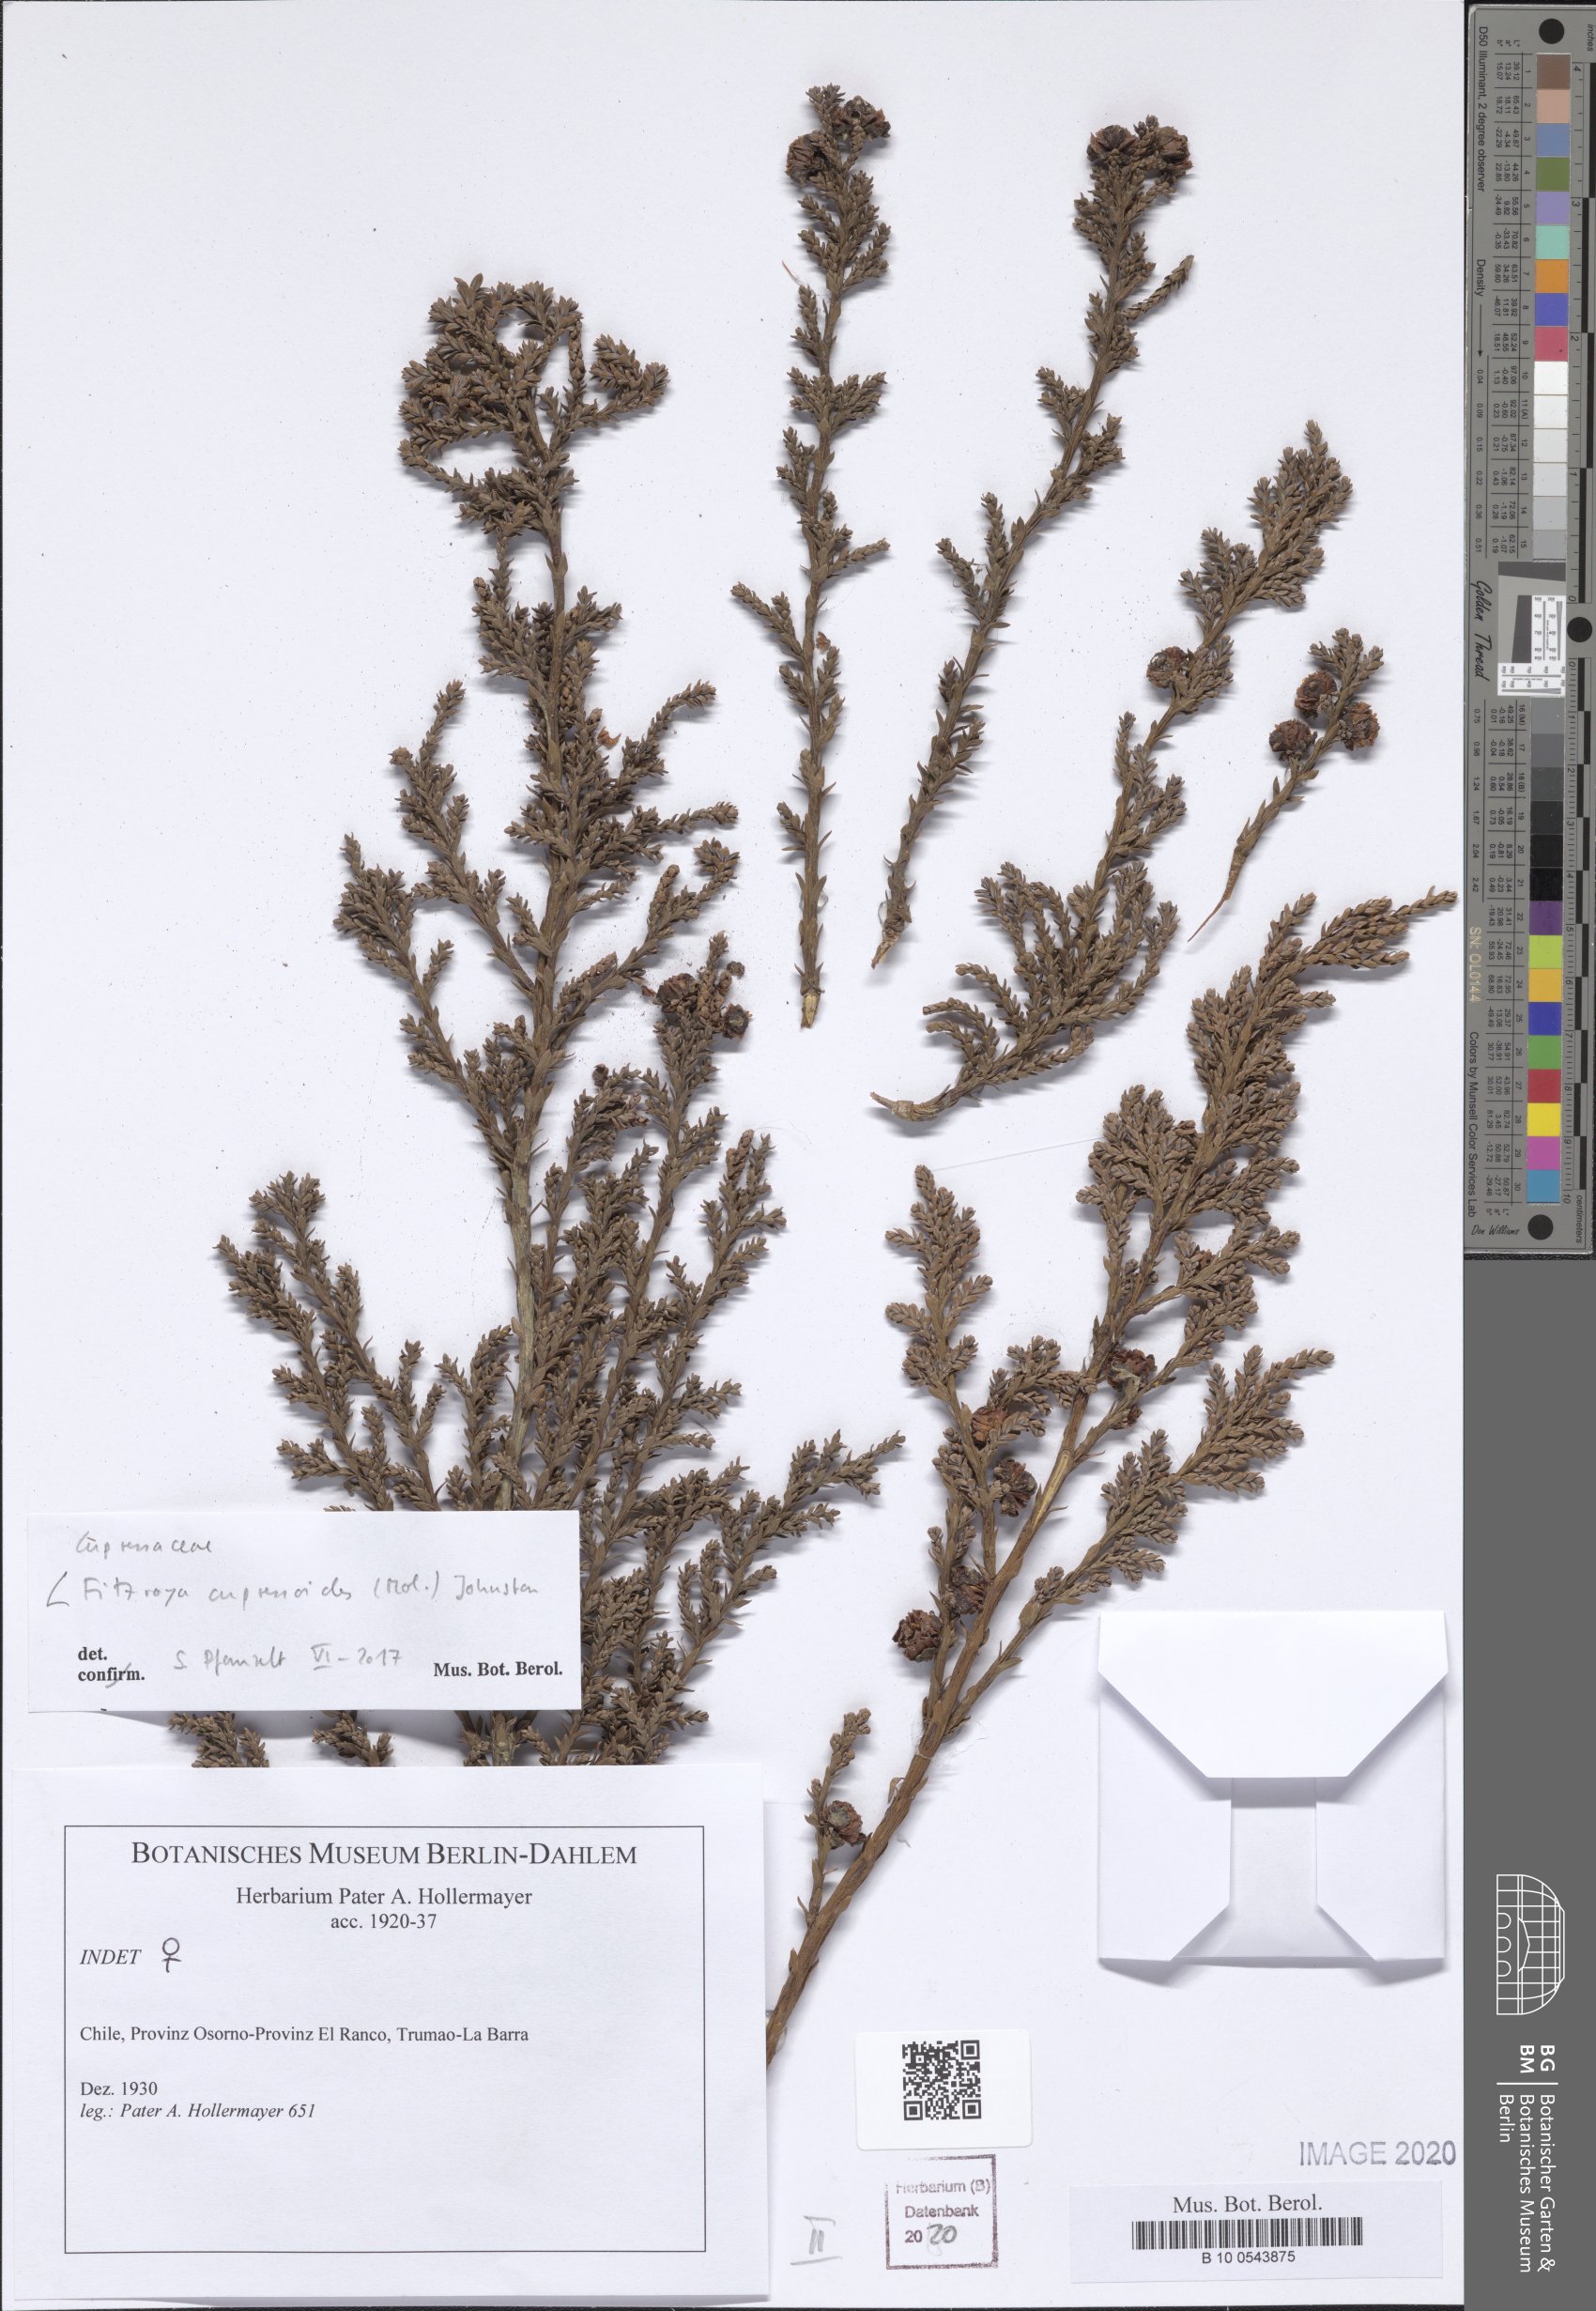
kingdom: Plantae
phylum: Tracheophyta
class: Pinopsida
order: Pinales
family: Cupressaceae
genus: Fitzroya
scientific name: Fitzroya cupressoides
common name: Patagonian cypress
